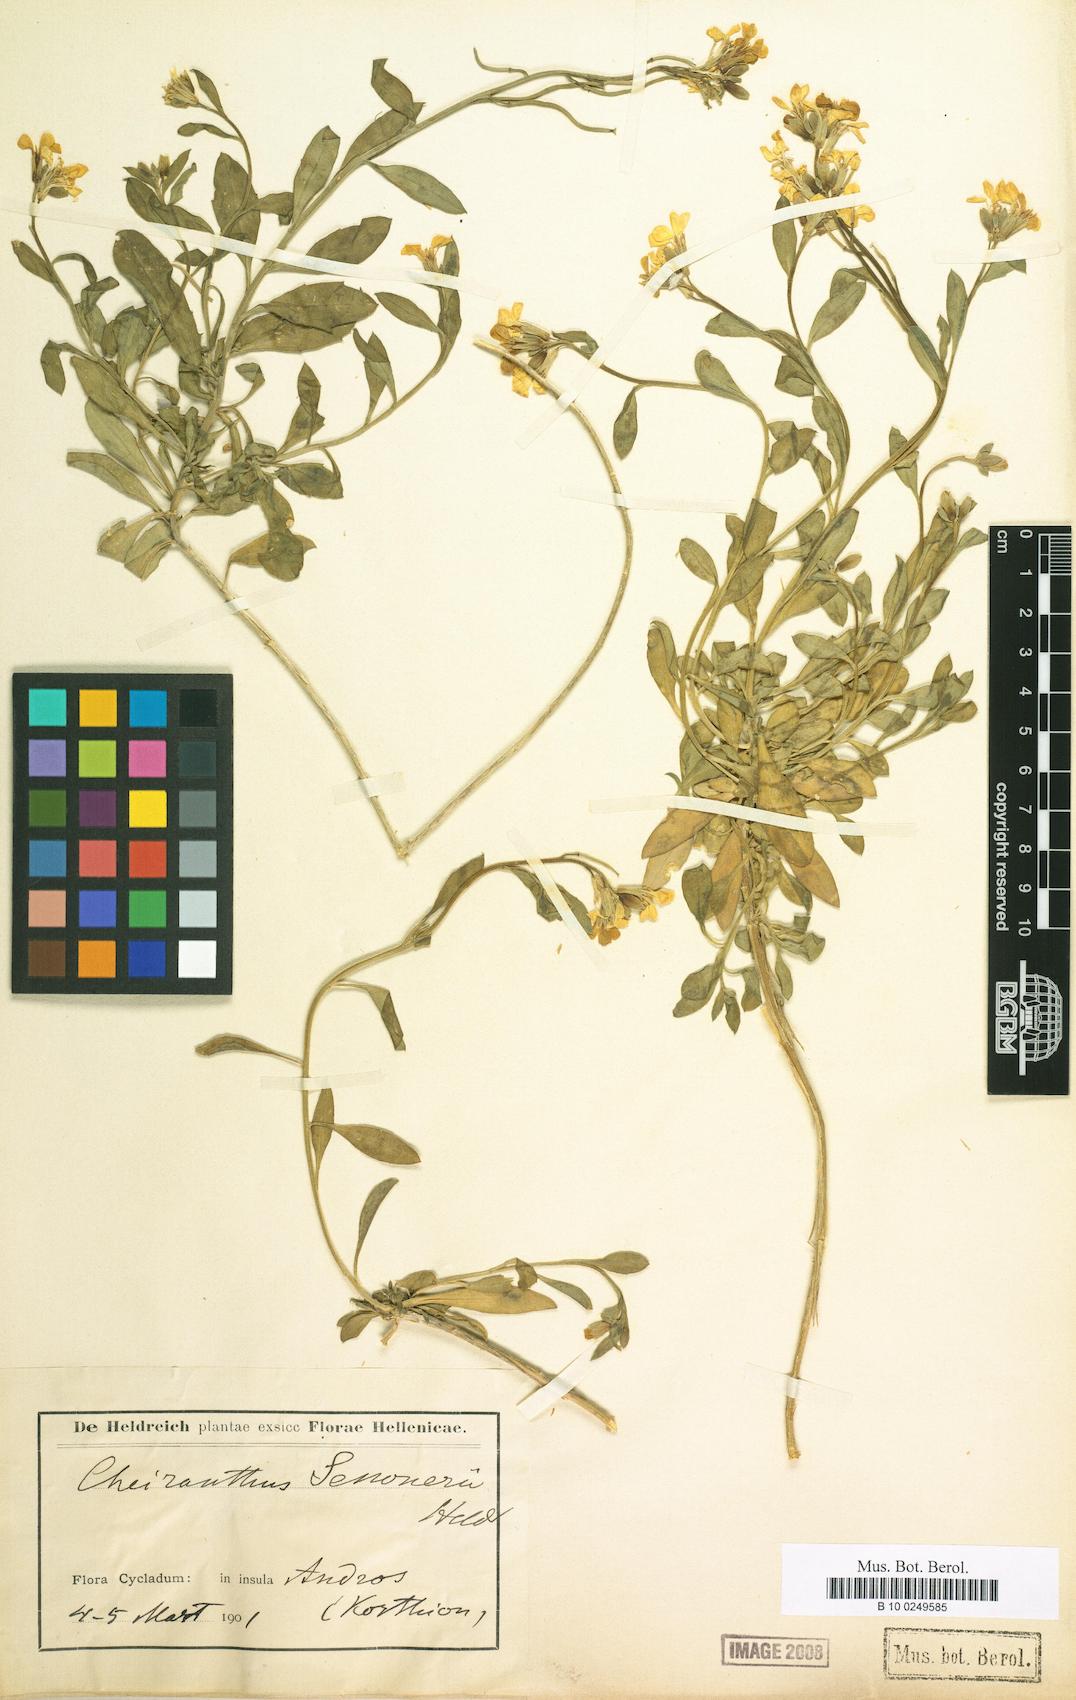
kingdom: Plantae
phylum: Tracheophyta
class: Magnoliopsida
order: Brassicales
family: Brassicaceae
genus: Erysimum
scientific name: Erysimum senoneri
